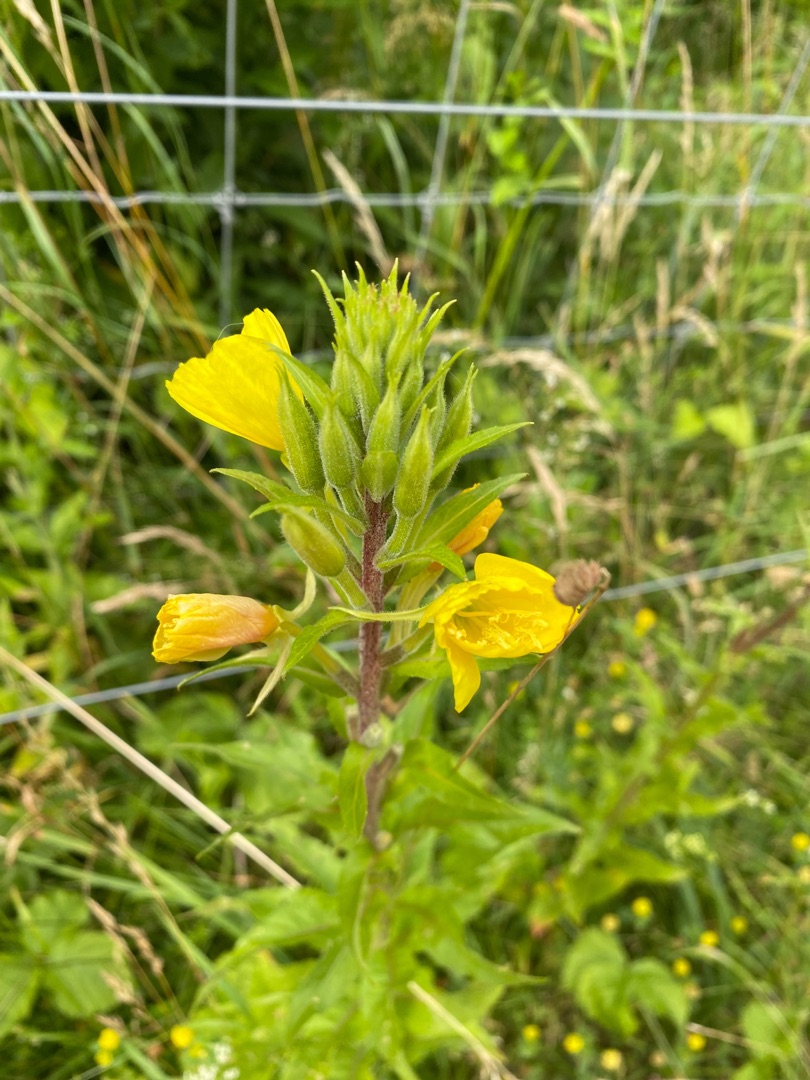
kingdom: Plantae
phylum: Tracheophyta
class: Magnoliopsida
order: Myrtales
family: Onagraceae
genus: Oenothera
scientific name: Oenothera biennis
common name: Rødfrugtet natlys
